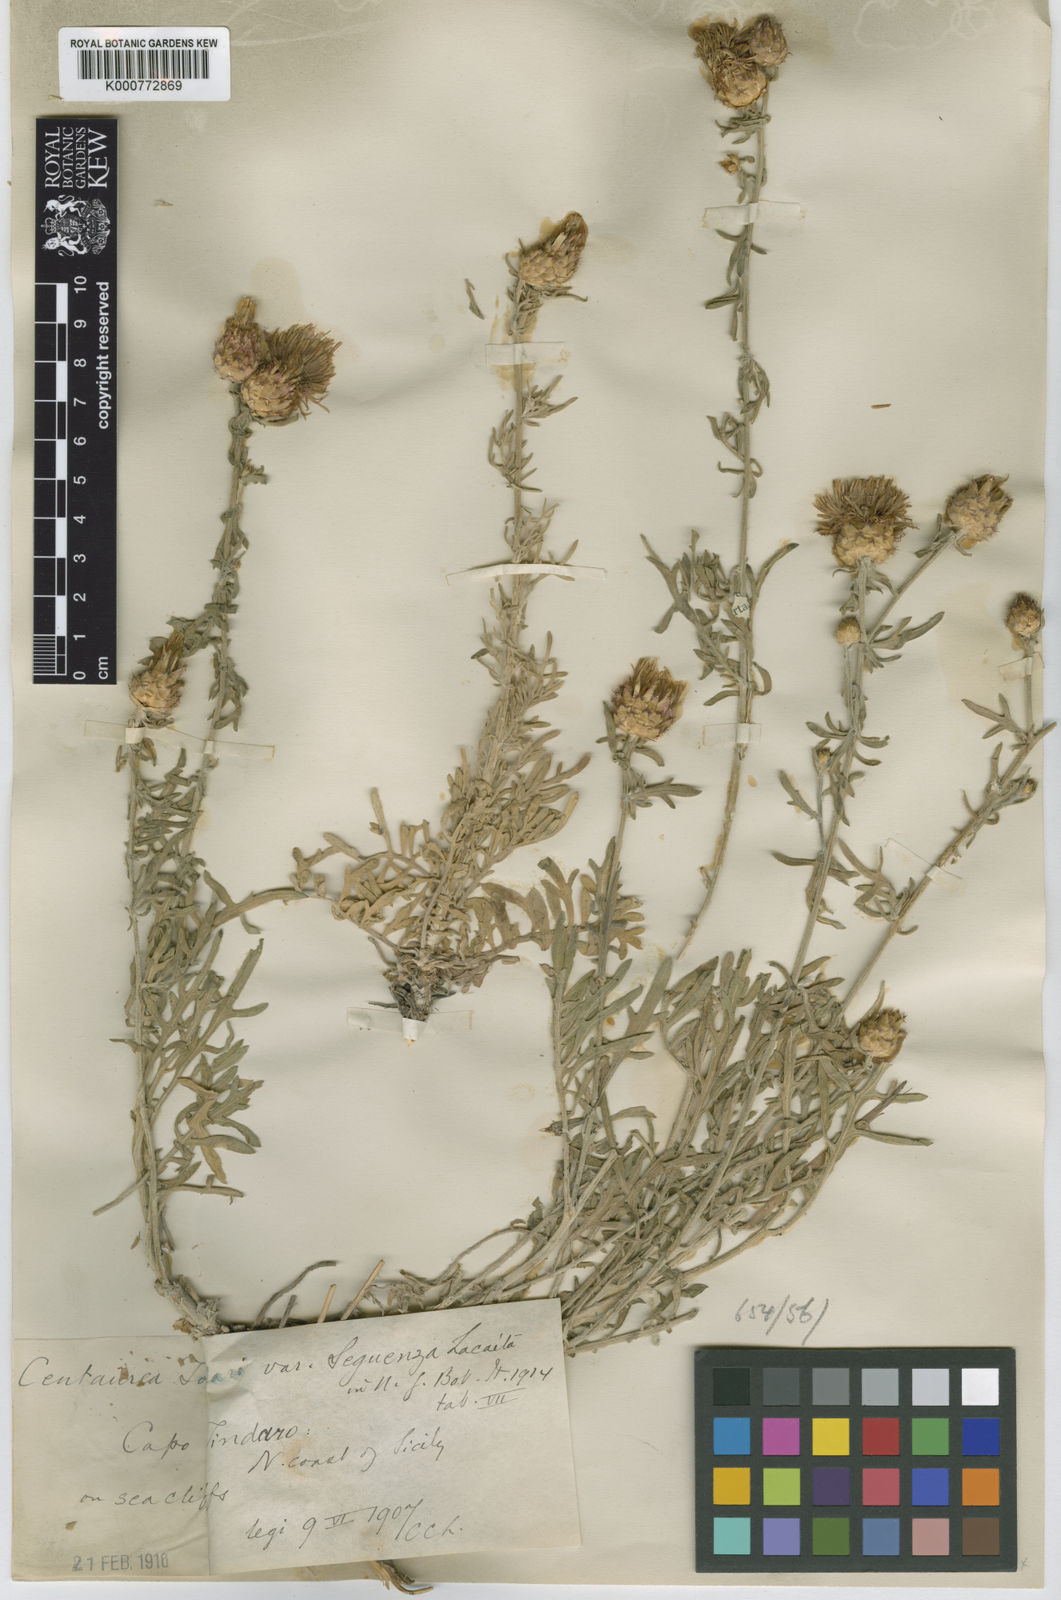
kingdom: Plantae
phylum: Tracheophyta
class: Magnoliopsida
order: Asterales
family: Asteraceae
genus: Centaurea
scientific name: Centaurea cineraria
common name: Dusty miller
